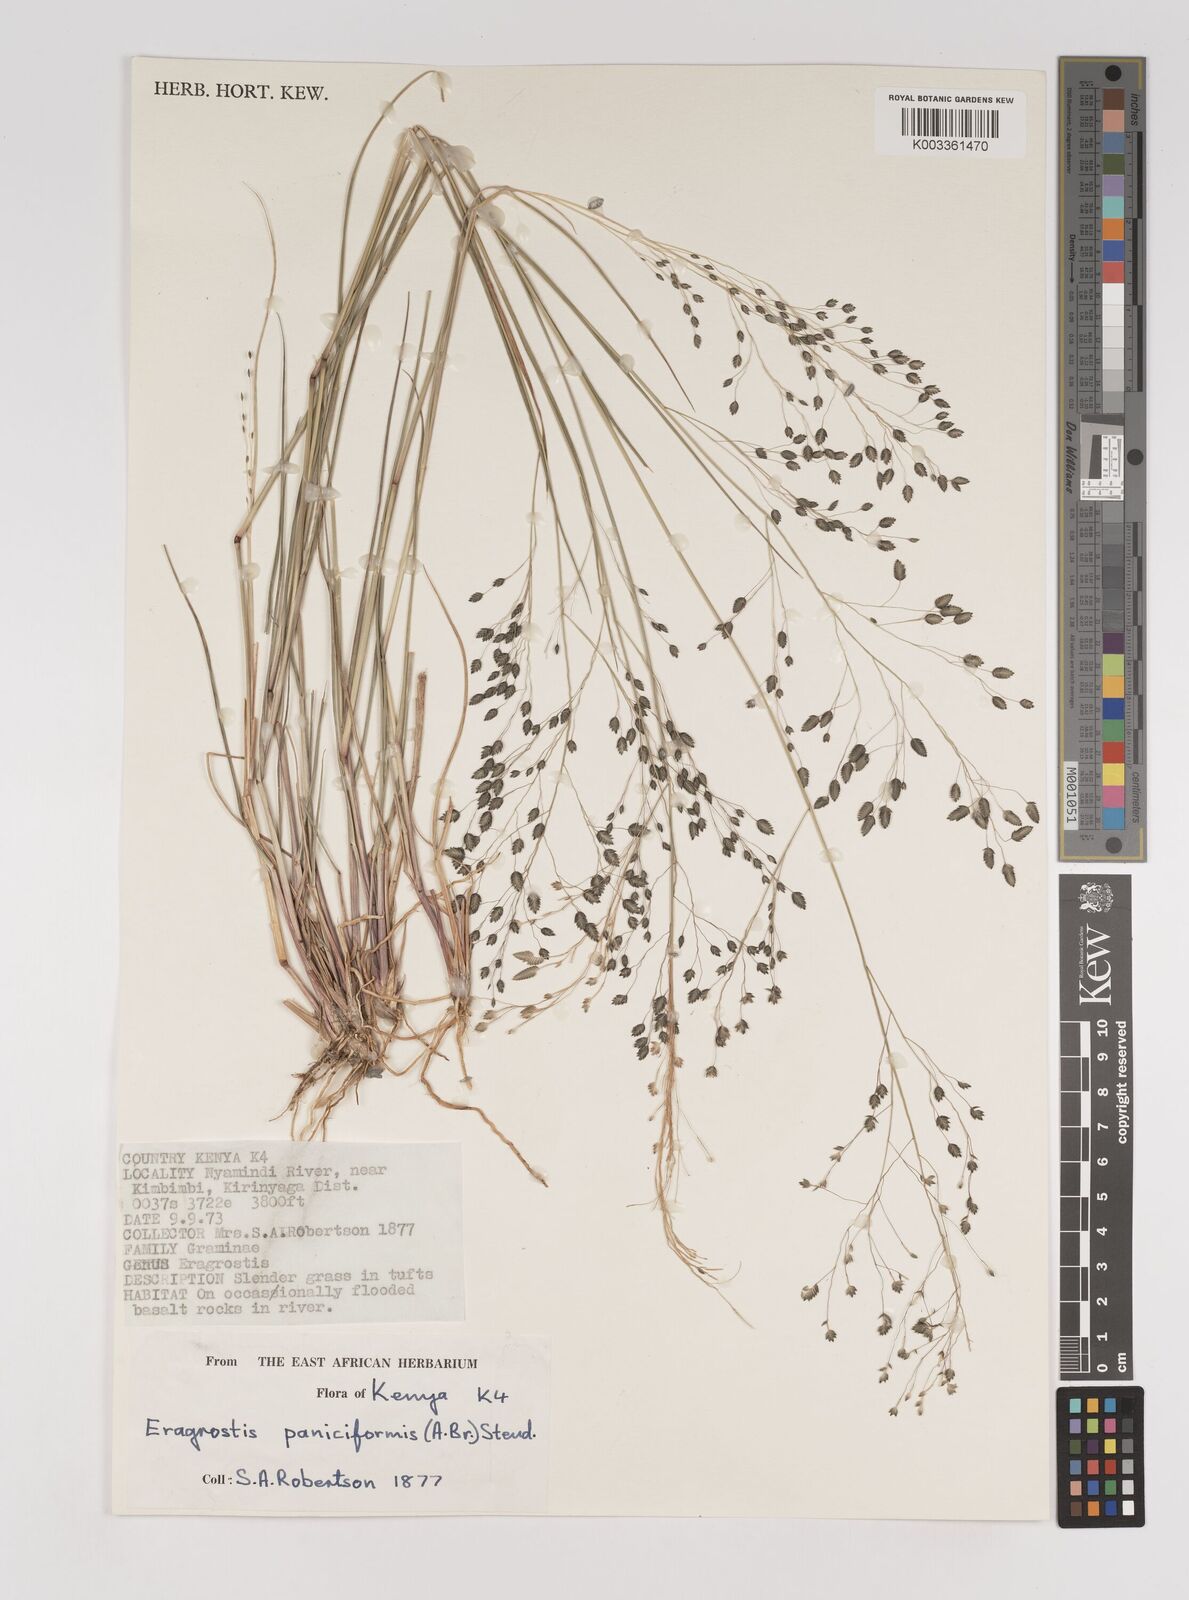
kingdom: Plantae
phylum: Tracheophyta
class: Liliopsida
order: Poales
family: Poaceae
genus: Eragrostis
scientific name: Eragrostis paniciformis
